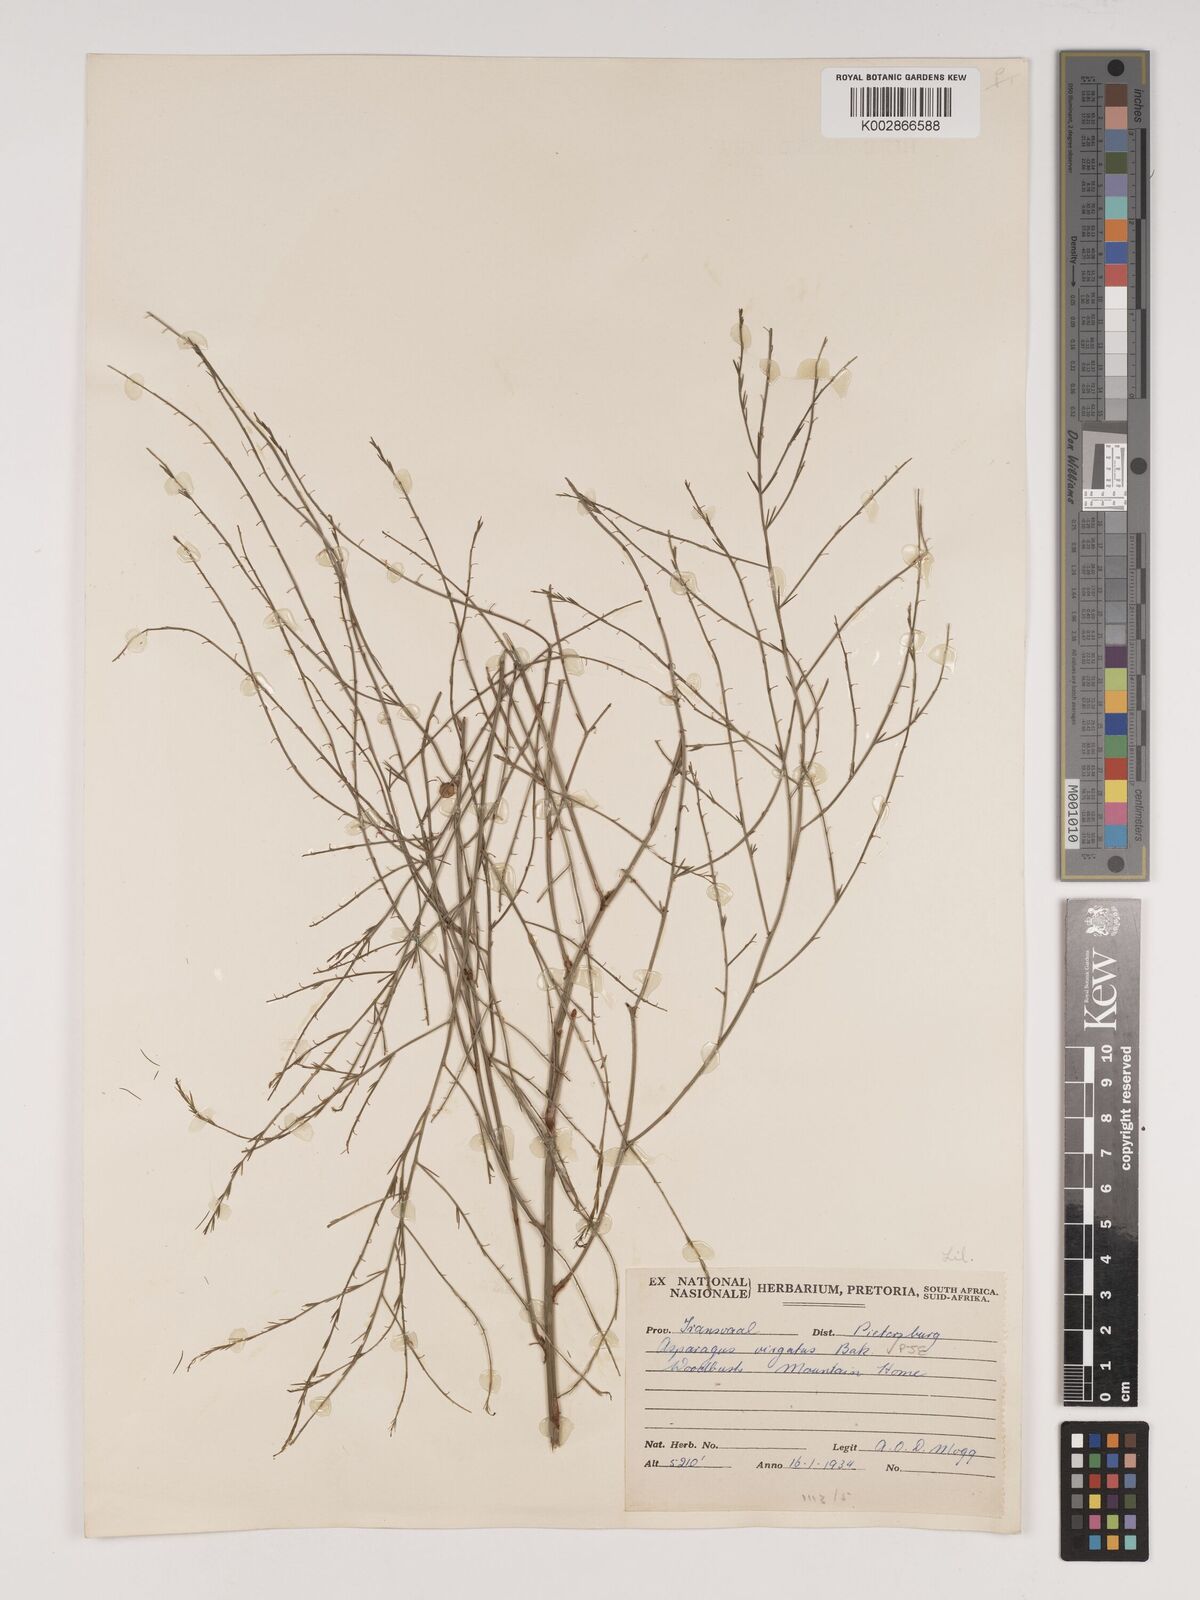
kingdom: Plantae
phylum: Tracheophyta
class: Liliopsida
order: Asparagales
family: Asparagaceae
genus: Asparagus
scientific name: Asparagus virgatus
